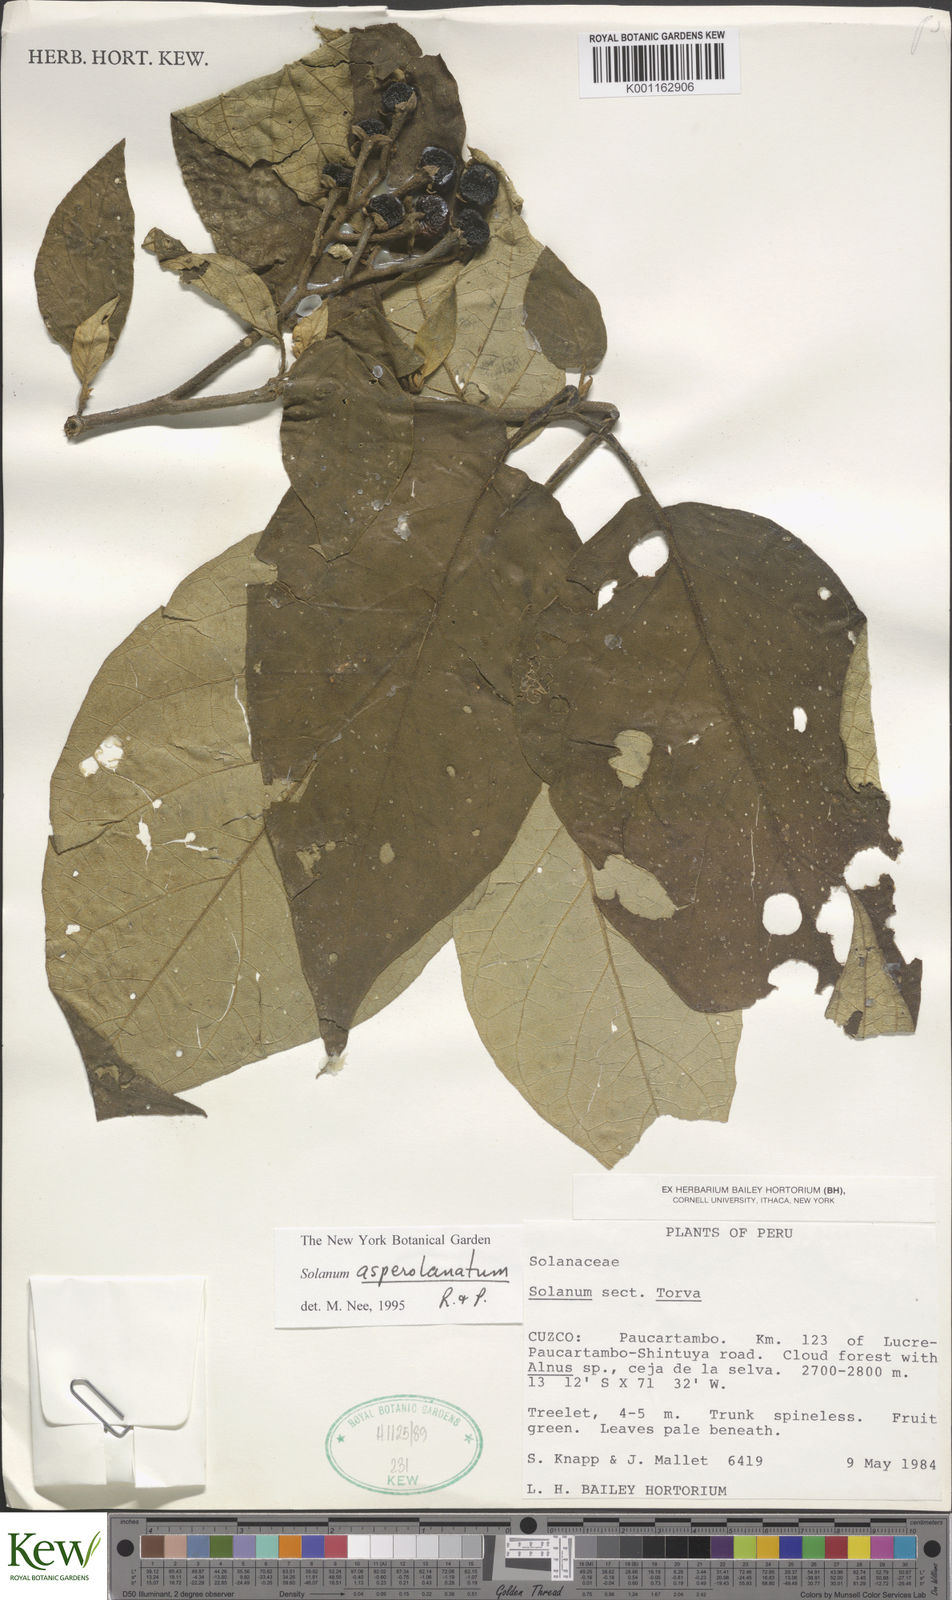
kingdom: Plantae
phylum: Tracheophyta
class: Magnoliopsida
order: Solanales
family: Solanaceae
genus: Solanum
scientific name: Solanum asperolanatum
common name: Devil's-fig
